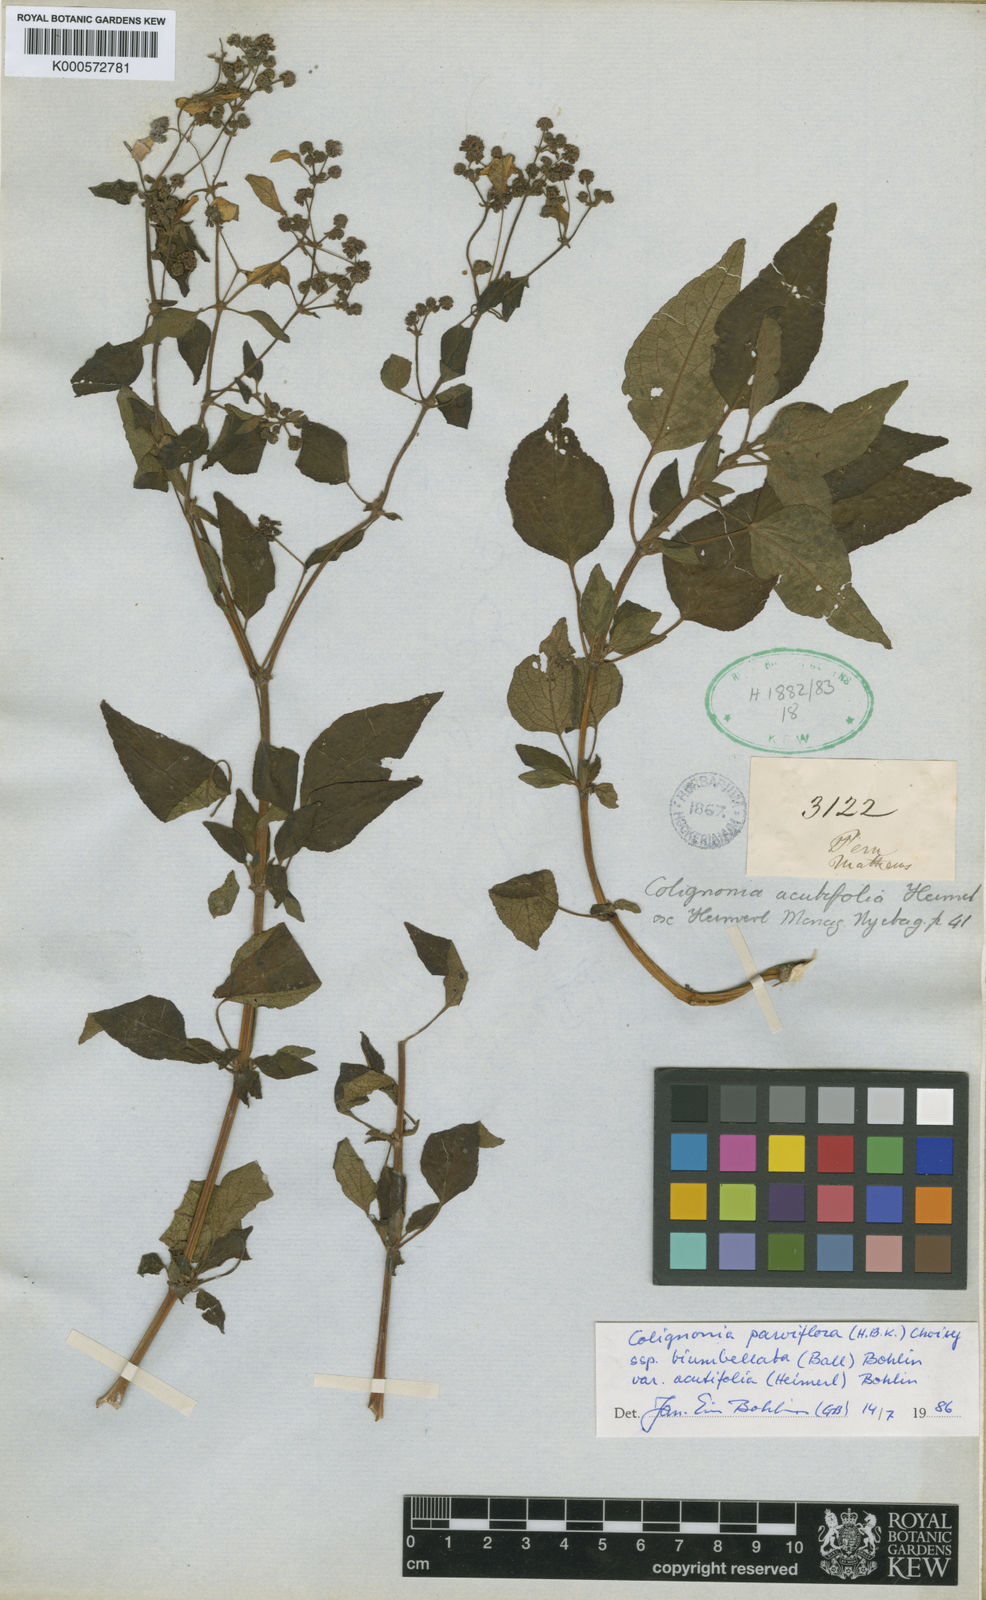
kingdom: Plantae
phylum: Tracheophyta
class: Magnoliopsida
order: Caryophyllales
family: Nyctaginaceae
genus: Colignonia
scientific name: Colignonia parviflora
